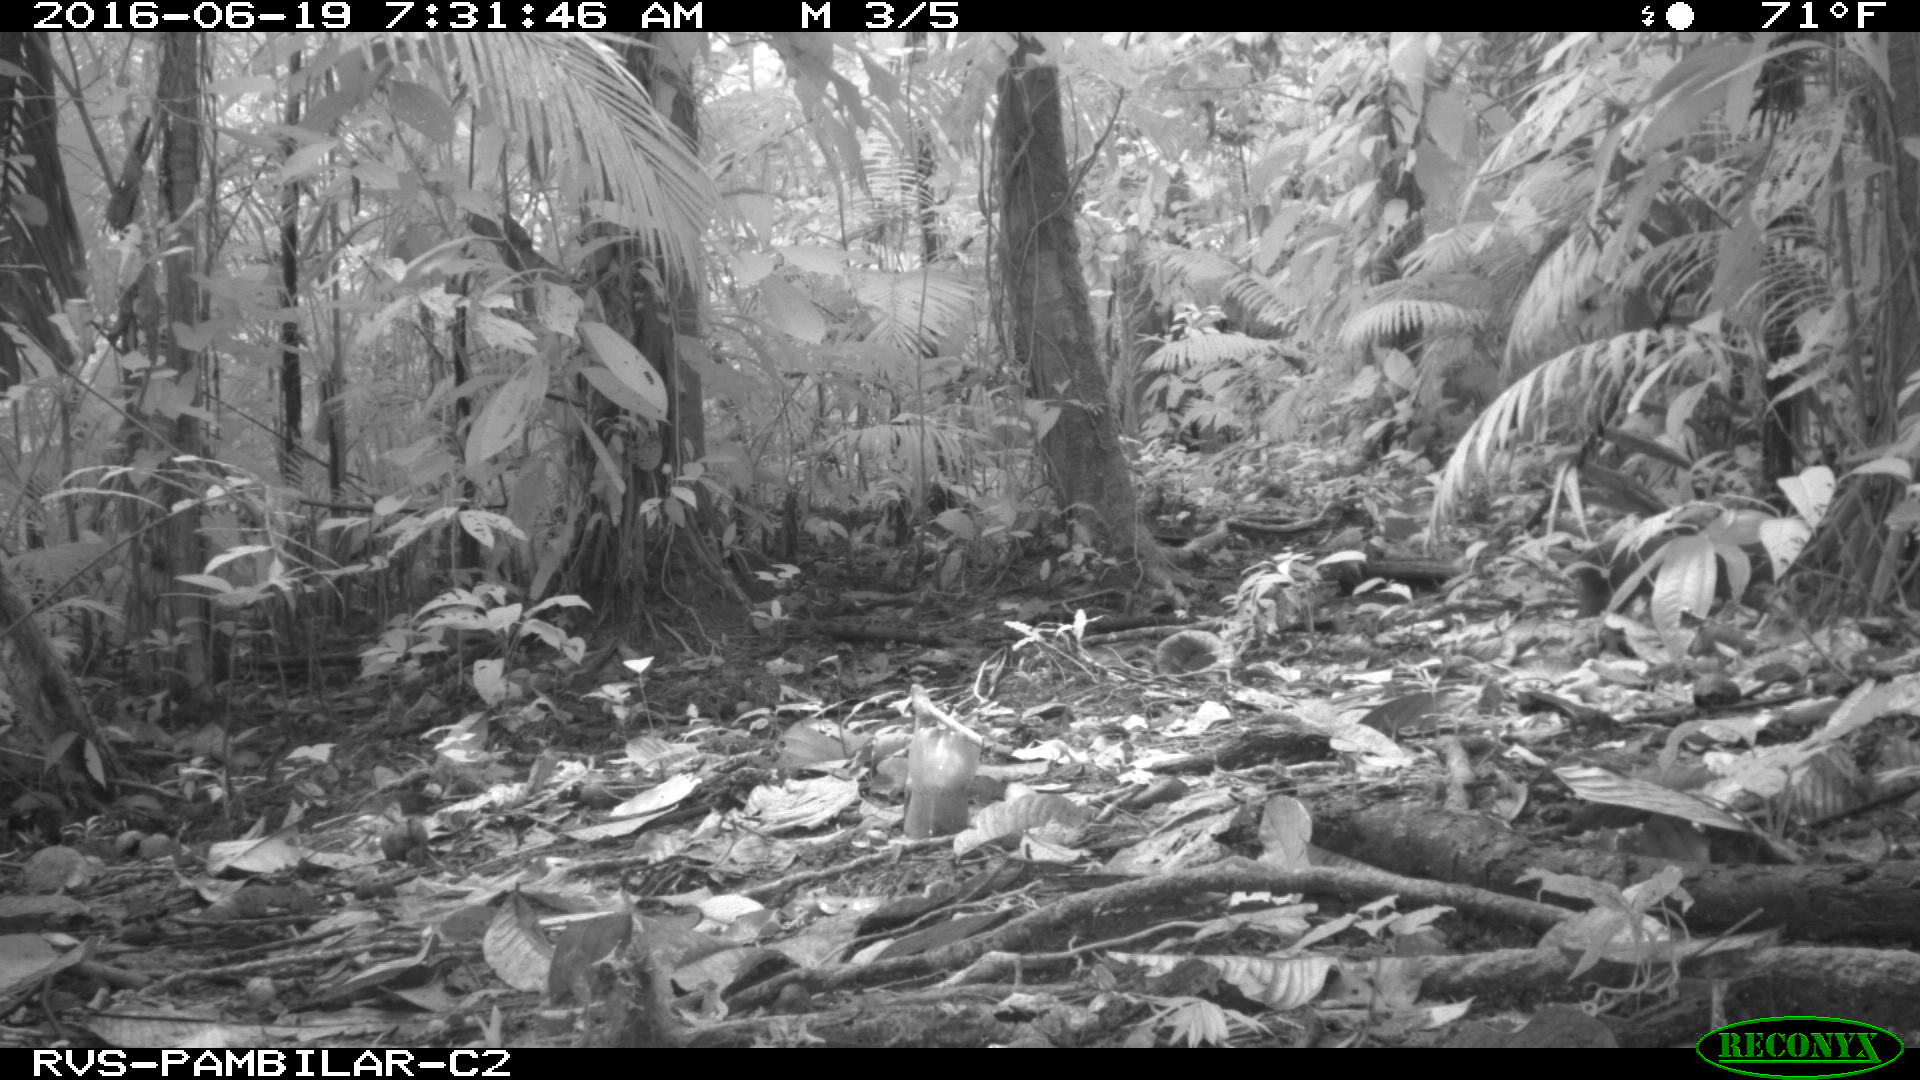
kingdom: Animalia
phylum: Chordata
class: Mammalia
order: Rodentia
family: Dasyproctidae
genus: Dasyprocta
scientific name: Dasyprocta punctata
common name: Central american agouti
